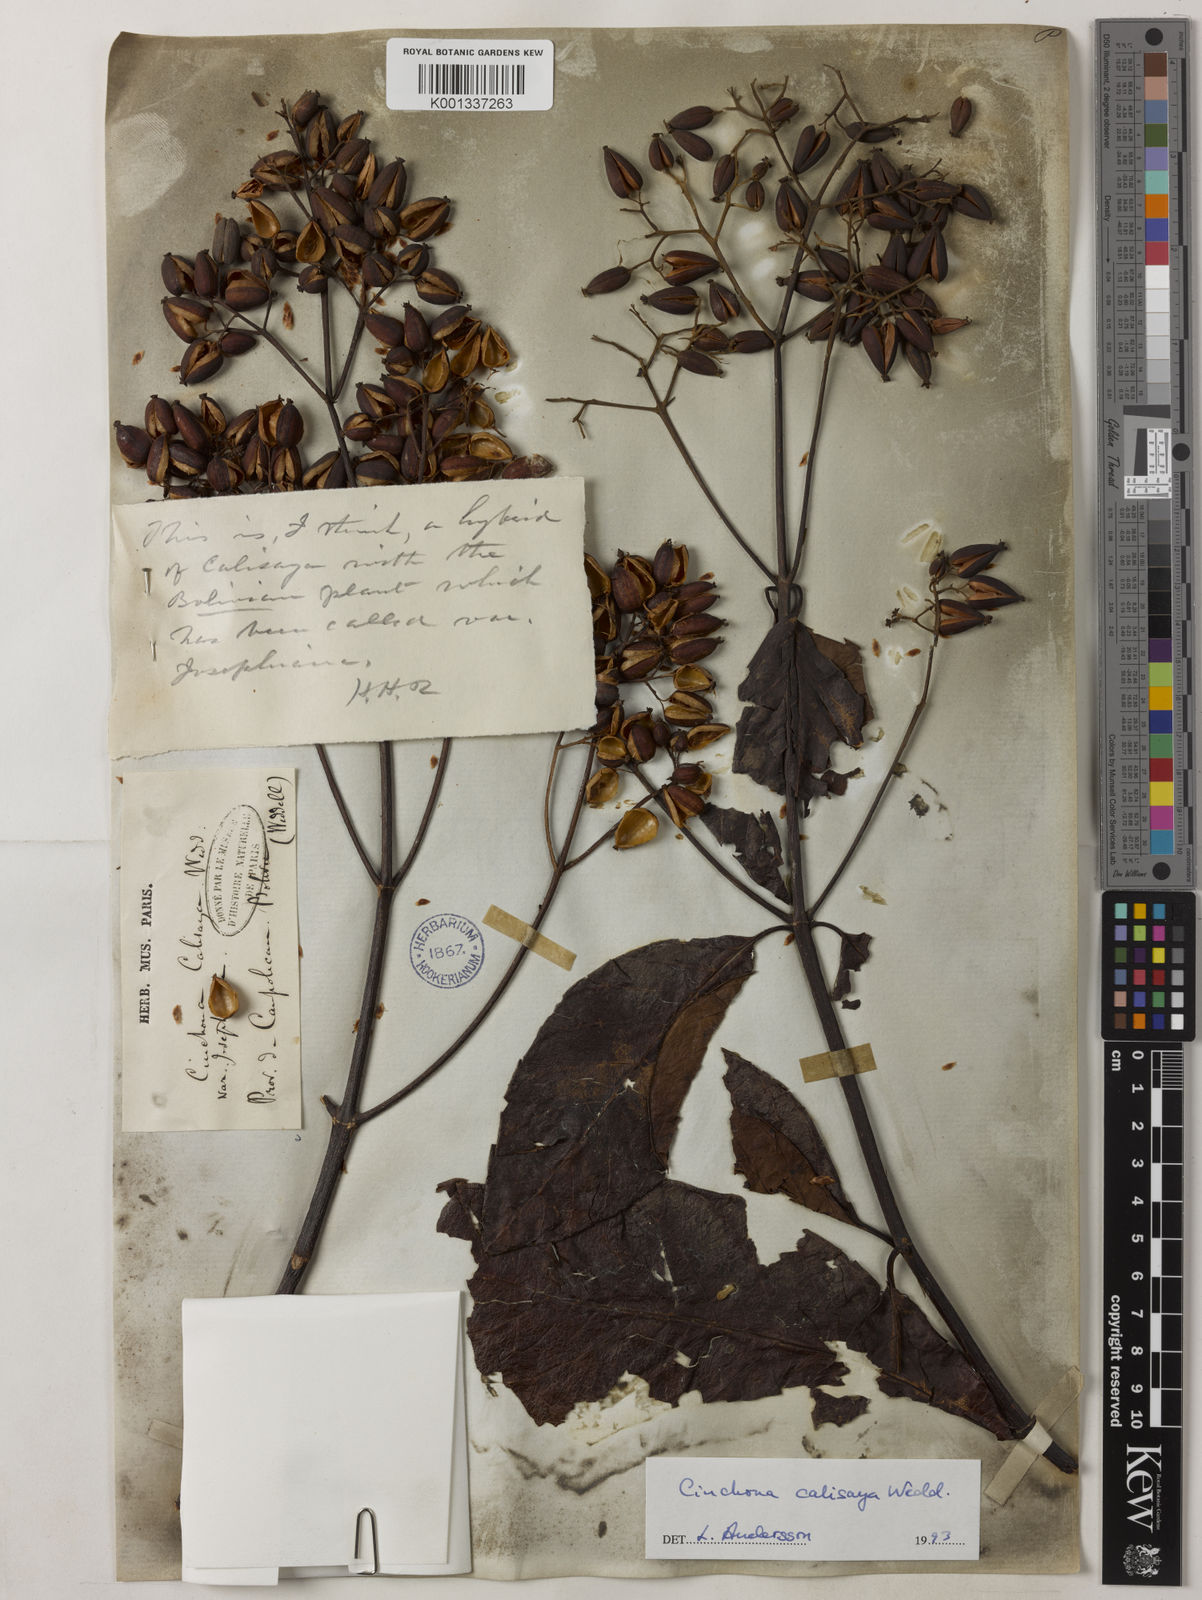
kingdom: Plantae
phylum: Tracheophyta
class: Magnoliopsida
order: Gentianales
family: Rubiaceae
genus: Cinchona
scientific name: Cinchona calisaya
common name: Ledgerbark
